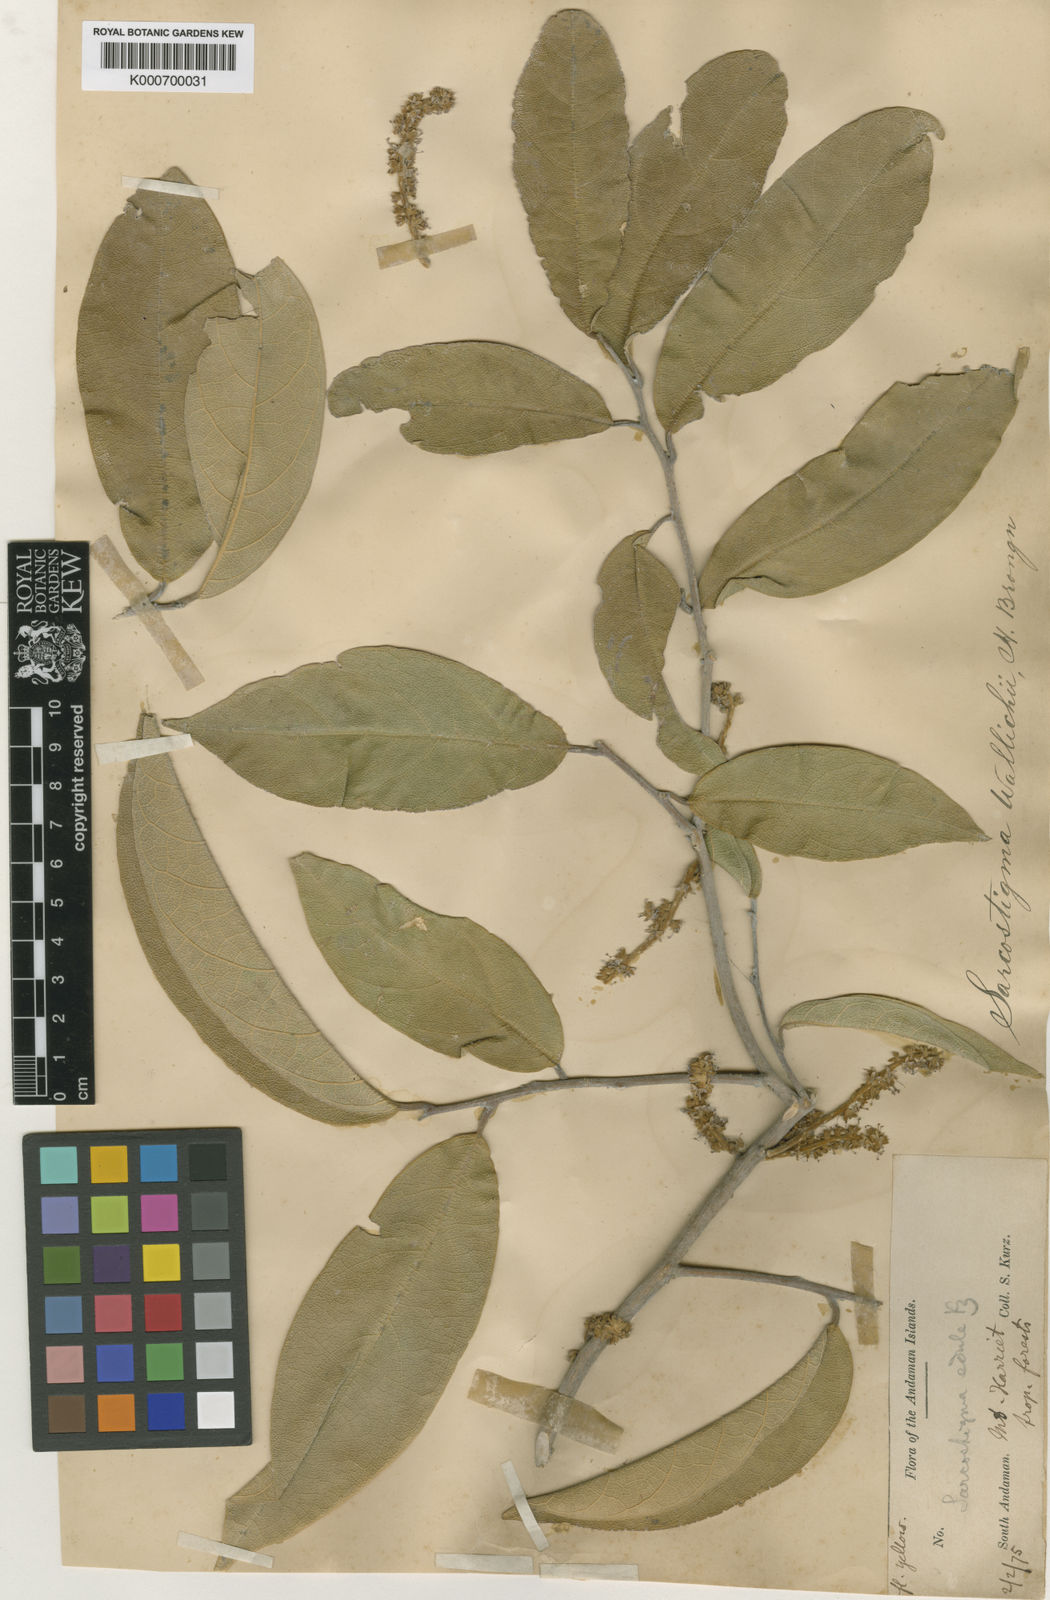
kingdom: Plantae
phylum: Tracheophyta
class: Magnoliopsida
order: Icacinales
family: Icacinaceae
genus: Sarcostigma
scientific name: Sarcostigma kleinii
